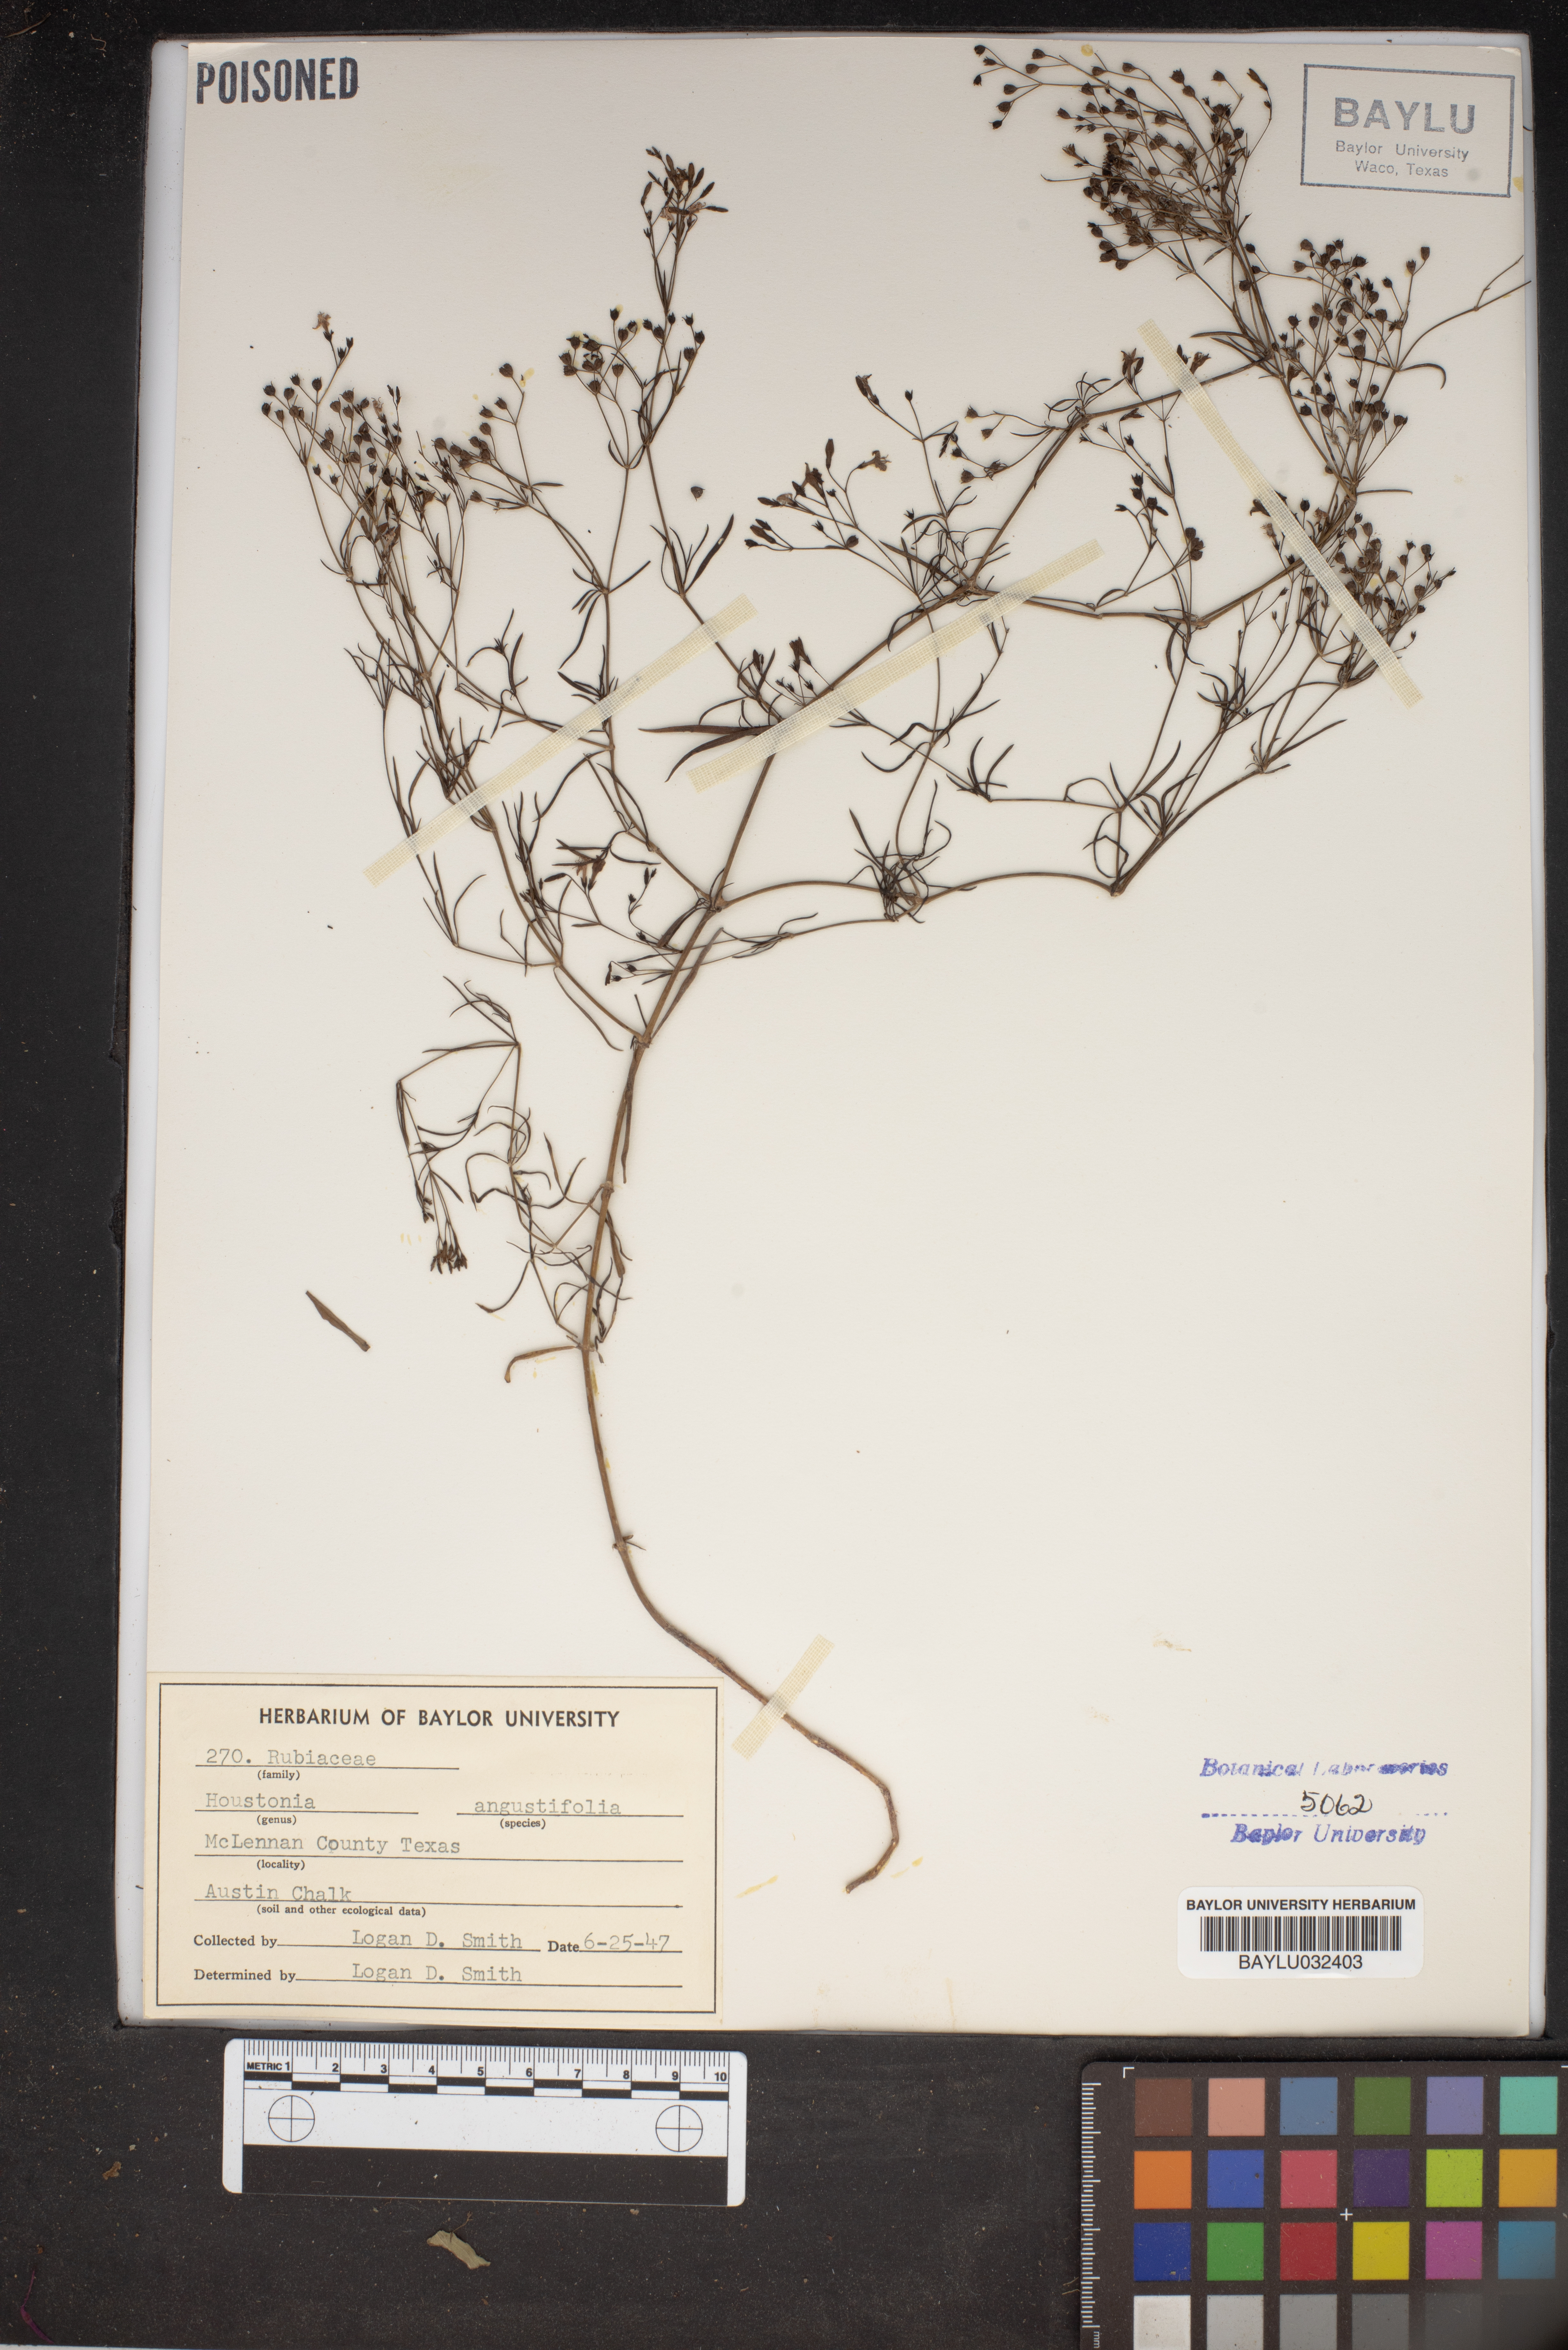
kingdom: Plantae
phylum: Tracheophyta
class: Magnoliopsida
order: Gentianales
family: Rubiaceae
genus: Stenaria
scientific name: Stenaria nigricans
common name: Diamondflowers
